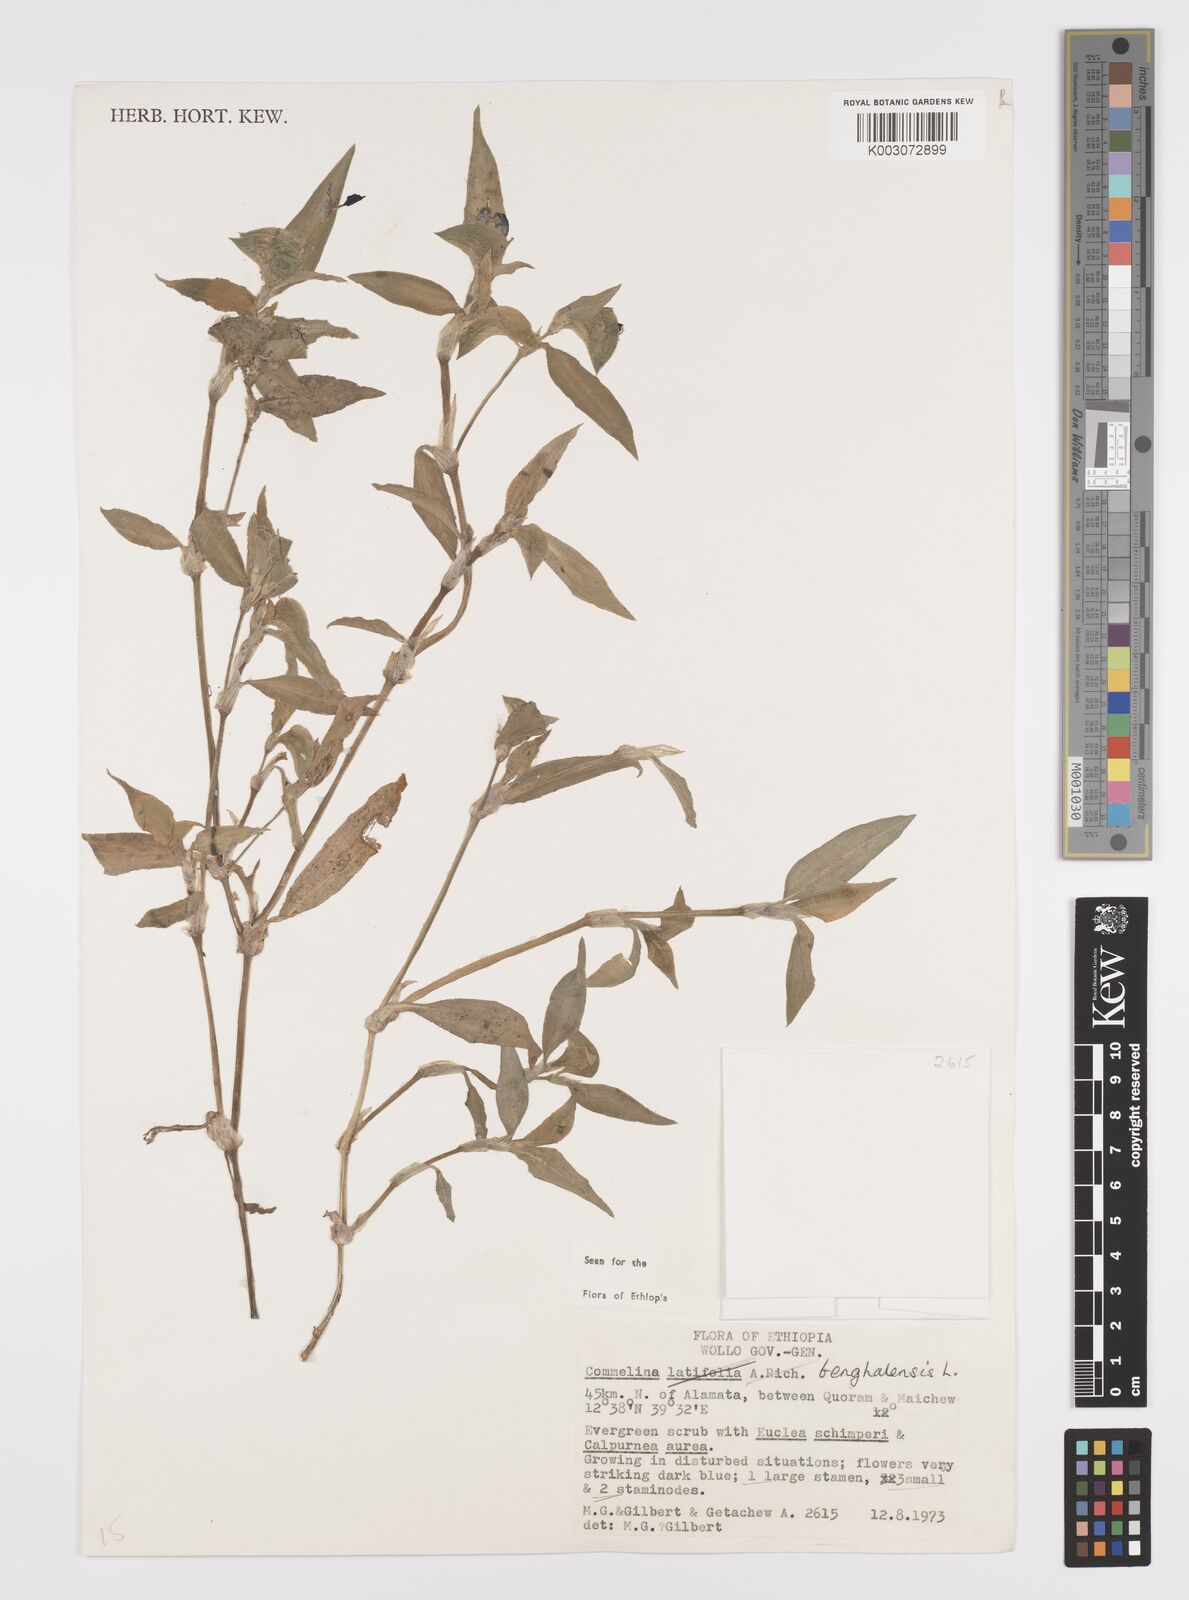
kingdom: Plantae
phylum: Tracheophyta
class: Liliopsida
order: Commelinales
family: Commelinaceae
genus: Commelina
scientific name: Commelina benghalensis
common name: Jio
